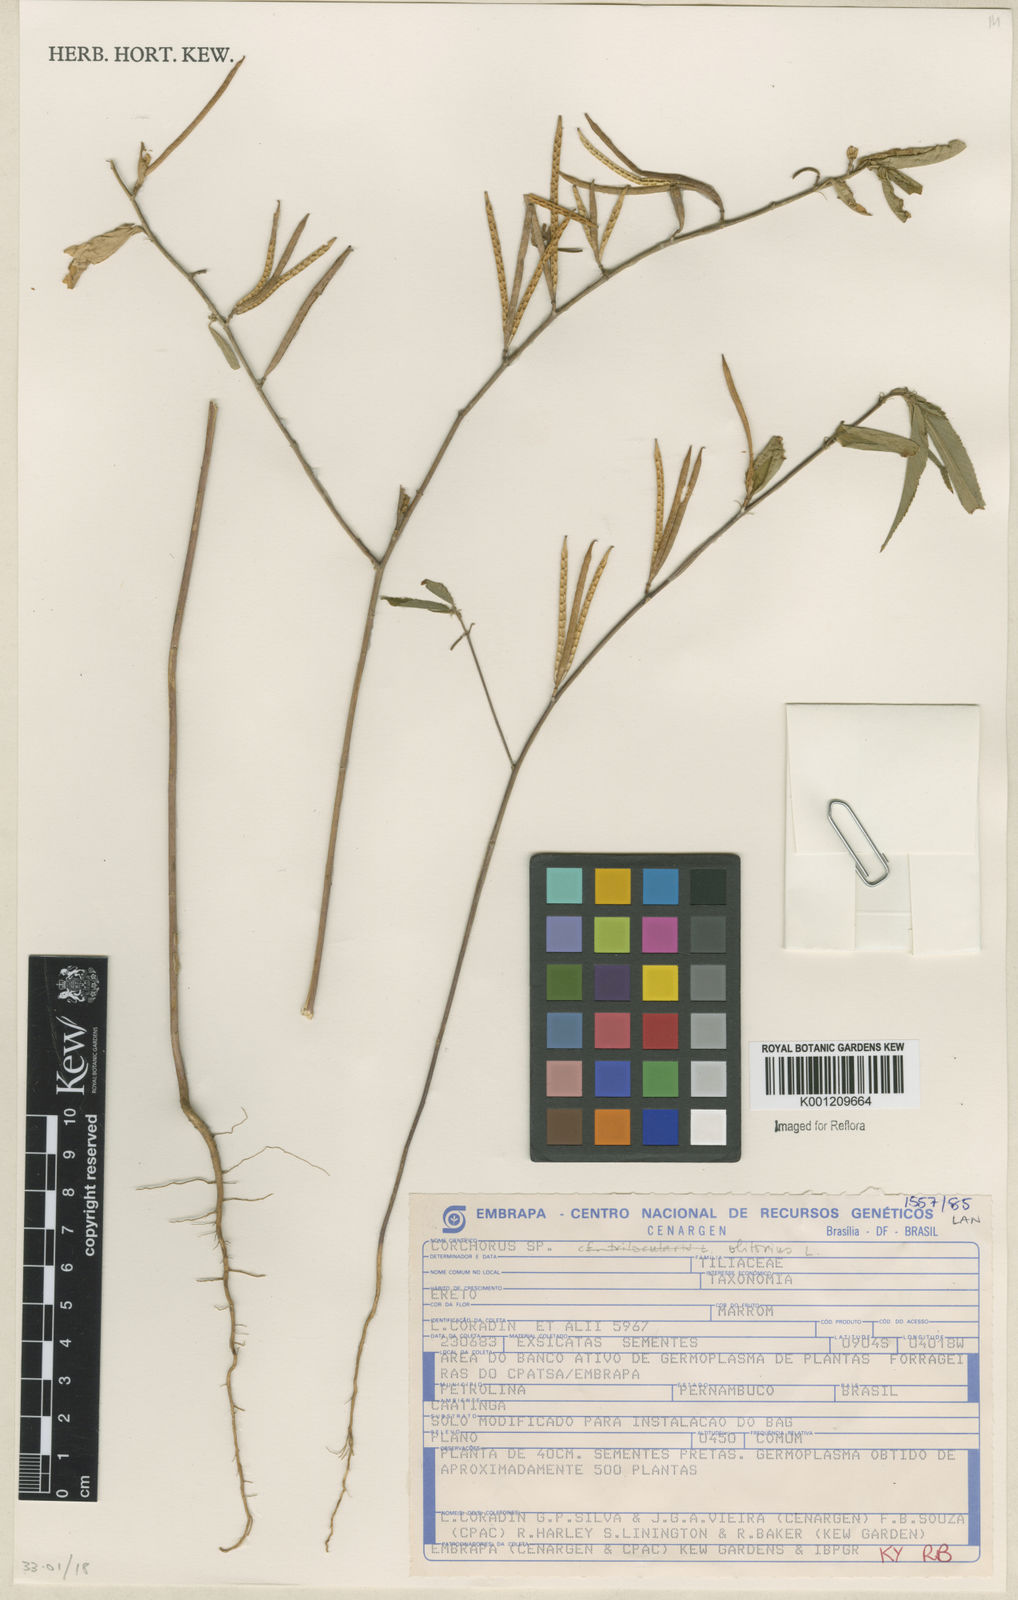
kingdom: Plantae
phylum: Tracheophyta
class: Magnoliopsida
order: Malvales
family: Malvaceae
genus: Corchorus
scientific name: Corchorus olitorius
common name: Tossa jute
